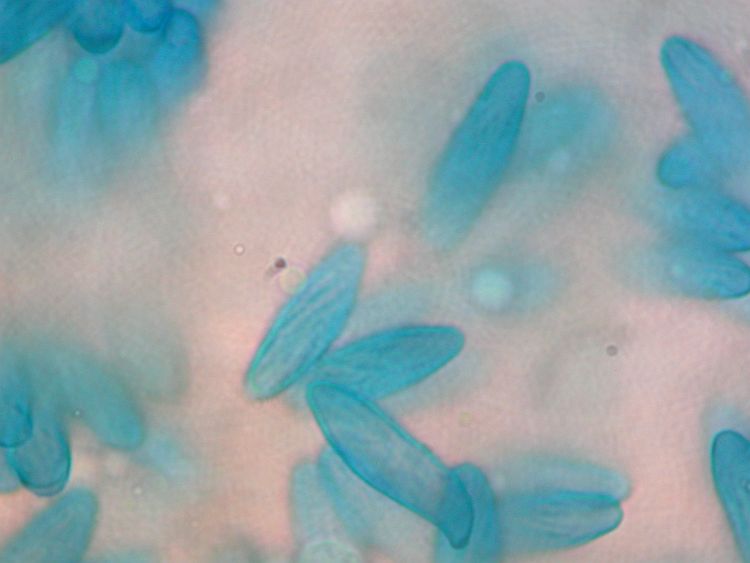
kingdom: Fungi
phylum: Basidiomycota
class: Agaricomycetes
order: Gomphales
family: Gomphaceae
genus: Ramaria
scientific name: Ramaria botrytis
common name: drue-koralsvamp
